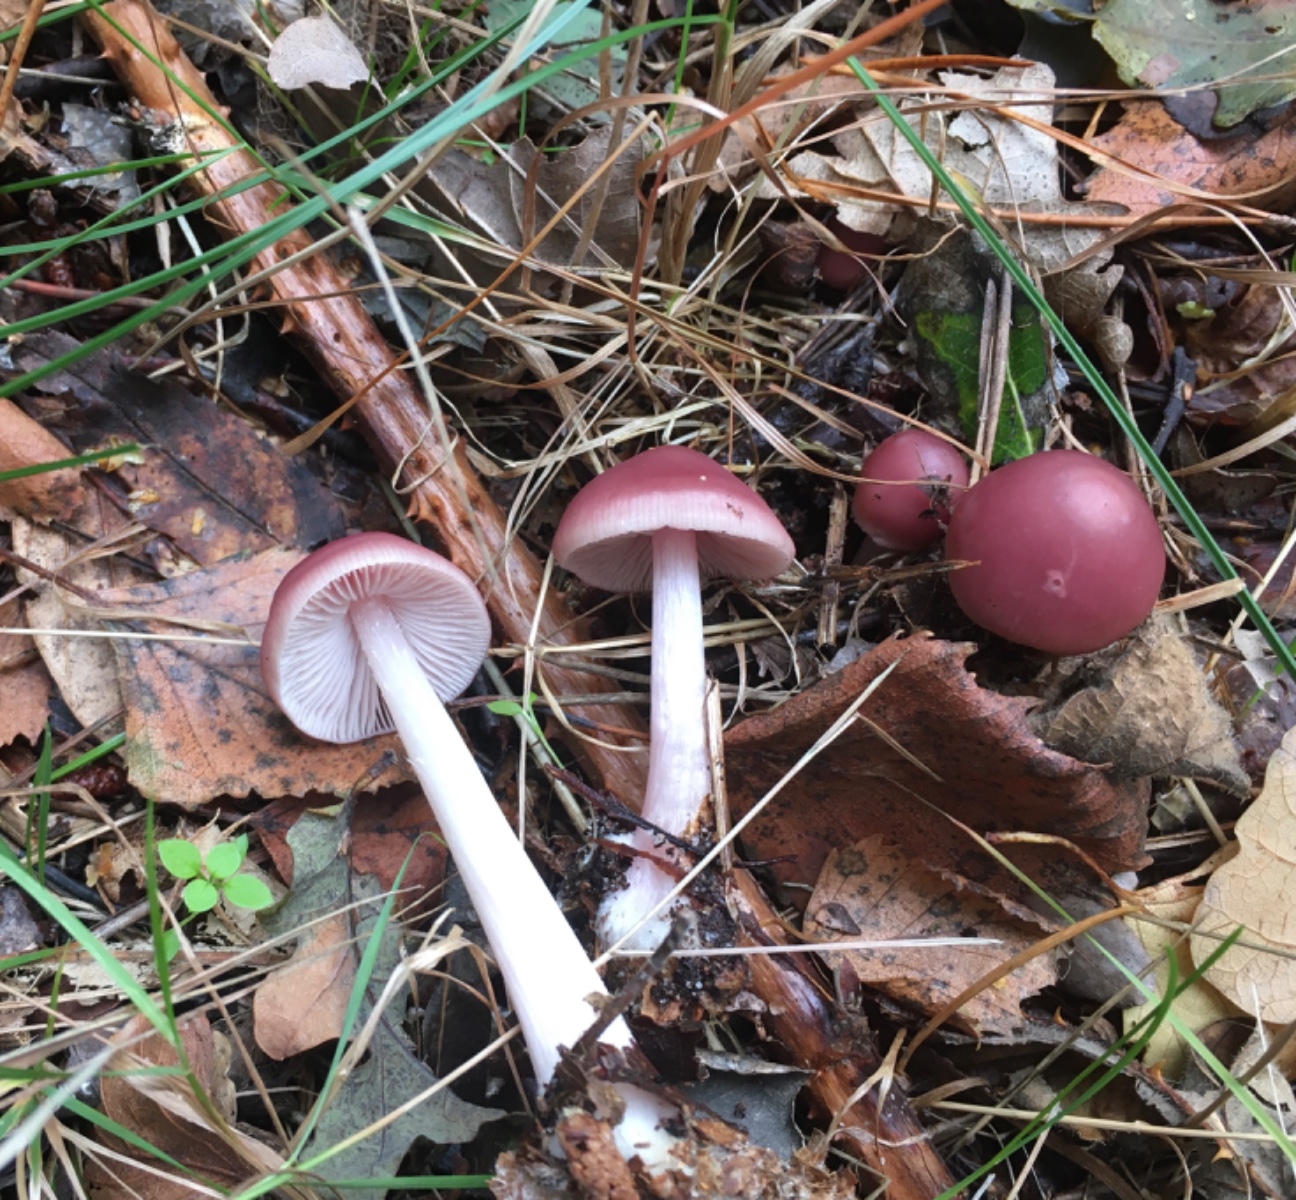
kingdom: Fungi
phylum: Basidiomycota
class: Agaricomycetes
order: Agaricales
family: Mycenaceae
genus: Mycena
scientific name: Mycena rosea
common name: rosa huesvamp
